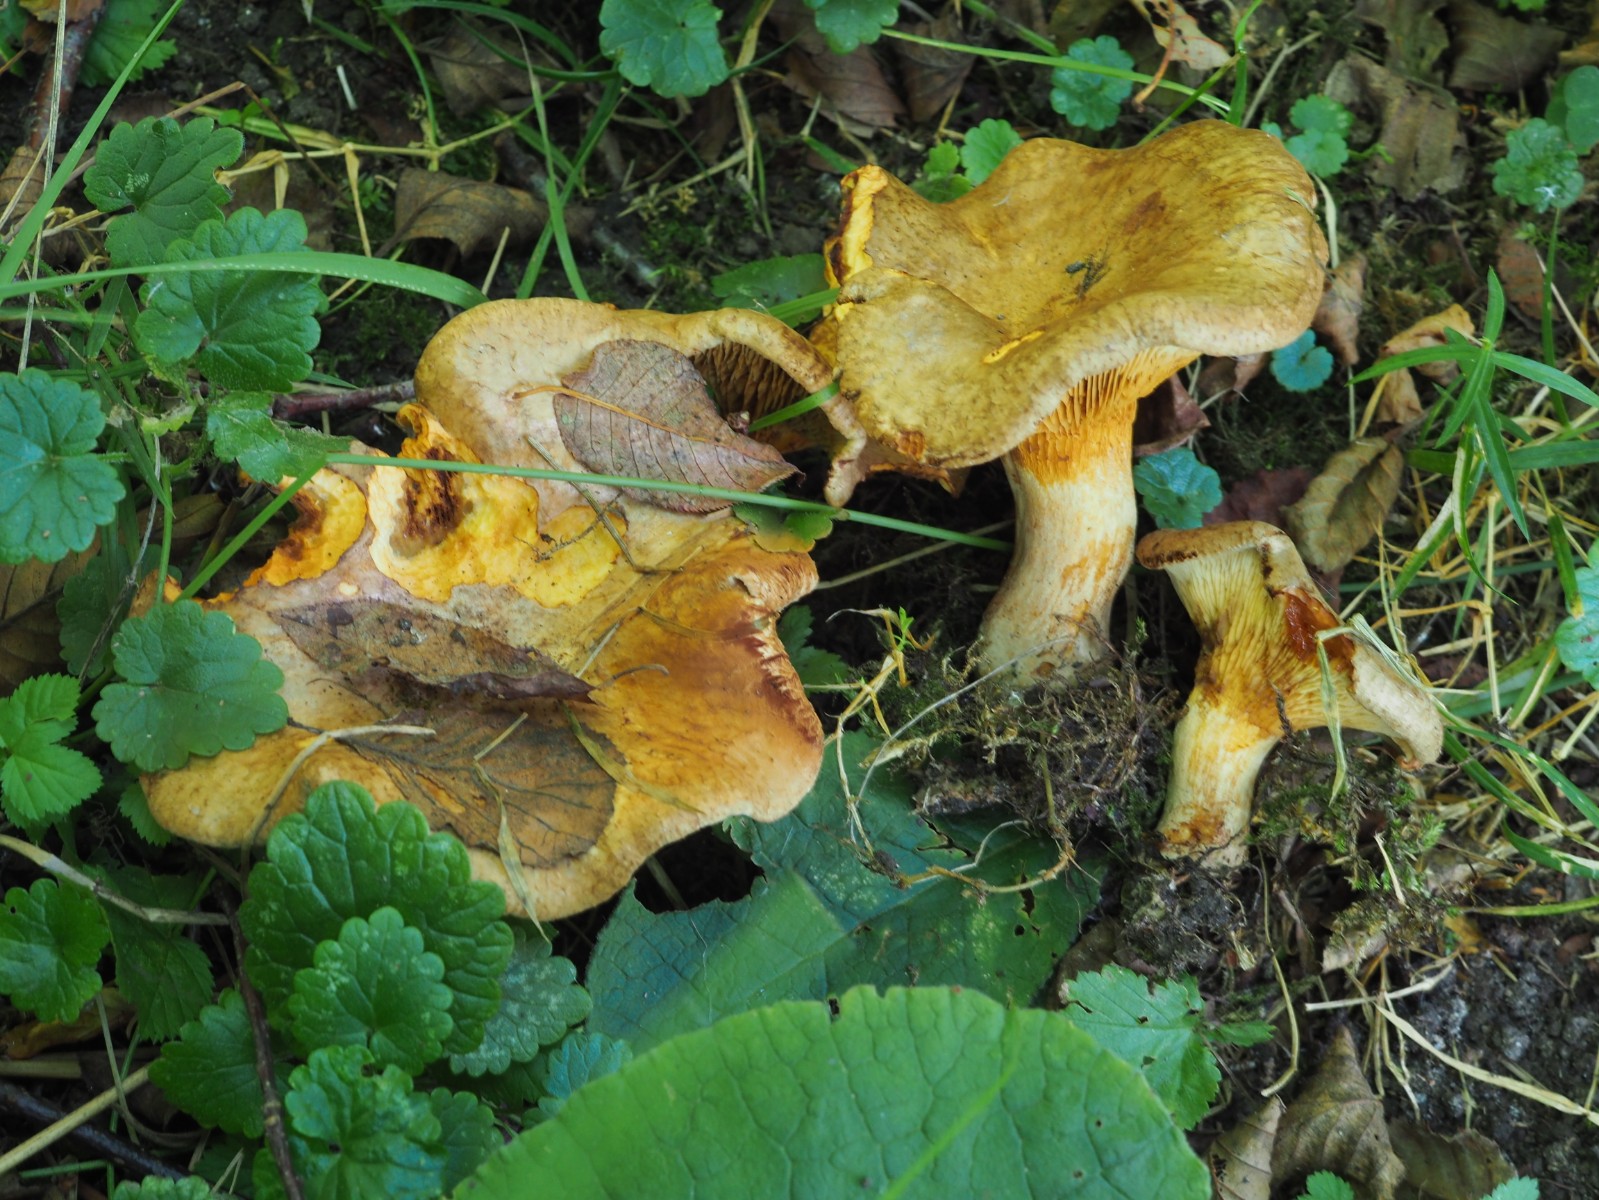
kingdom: Fungi
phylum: Basidiomycota
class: Agaricomycetes
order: Boletales
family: Paxillaceae
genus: Paxillus
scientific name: Paxillus rubicundulus
